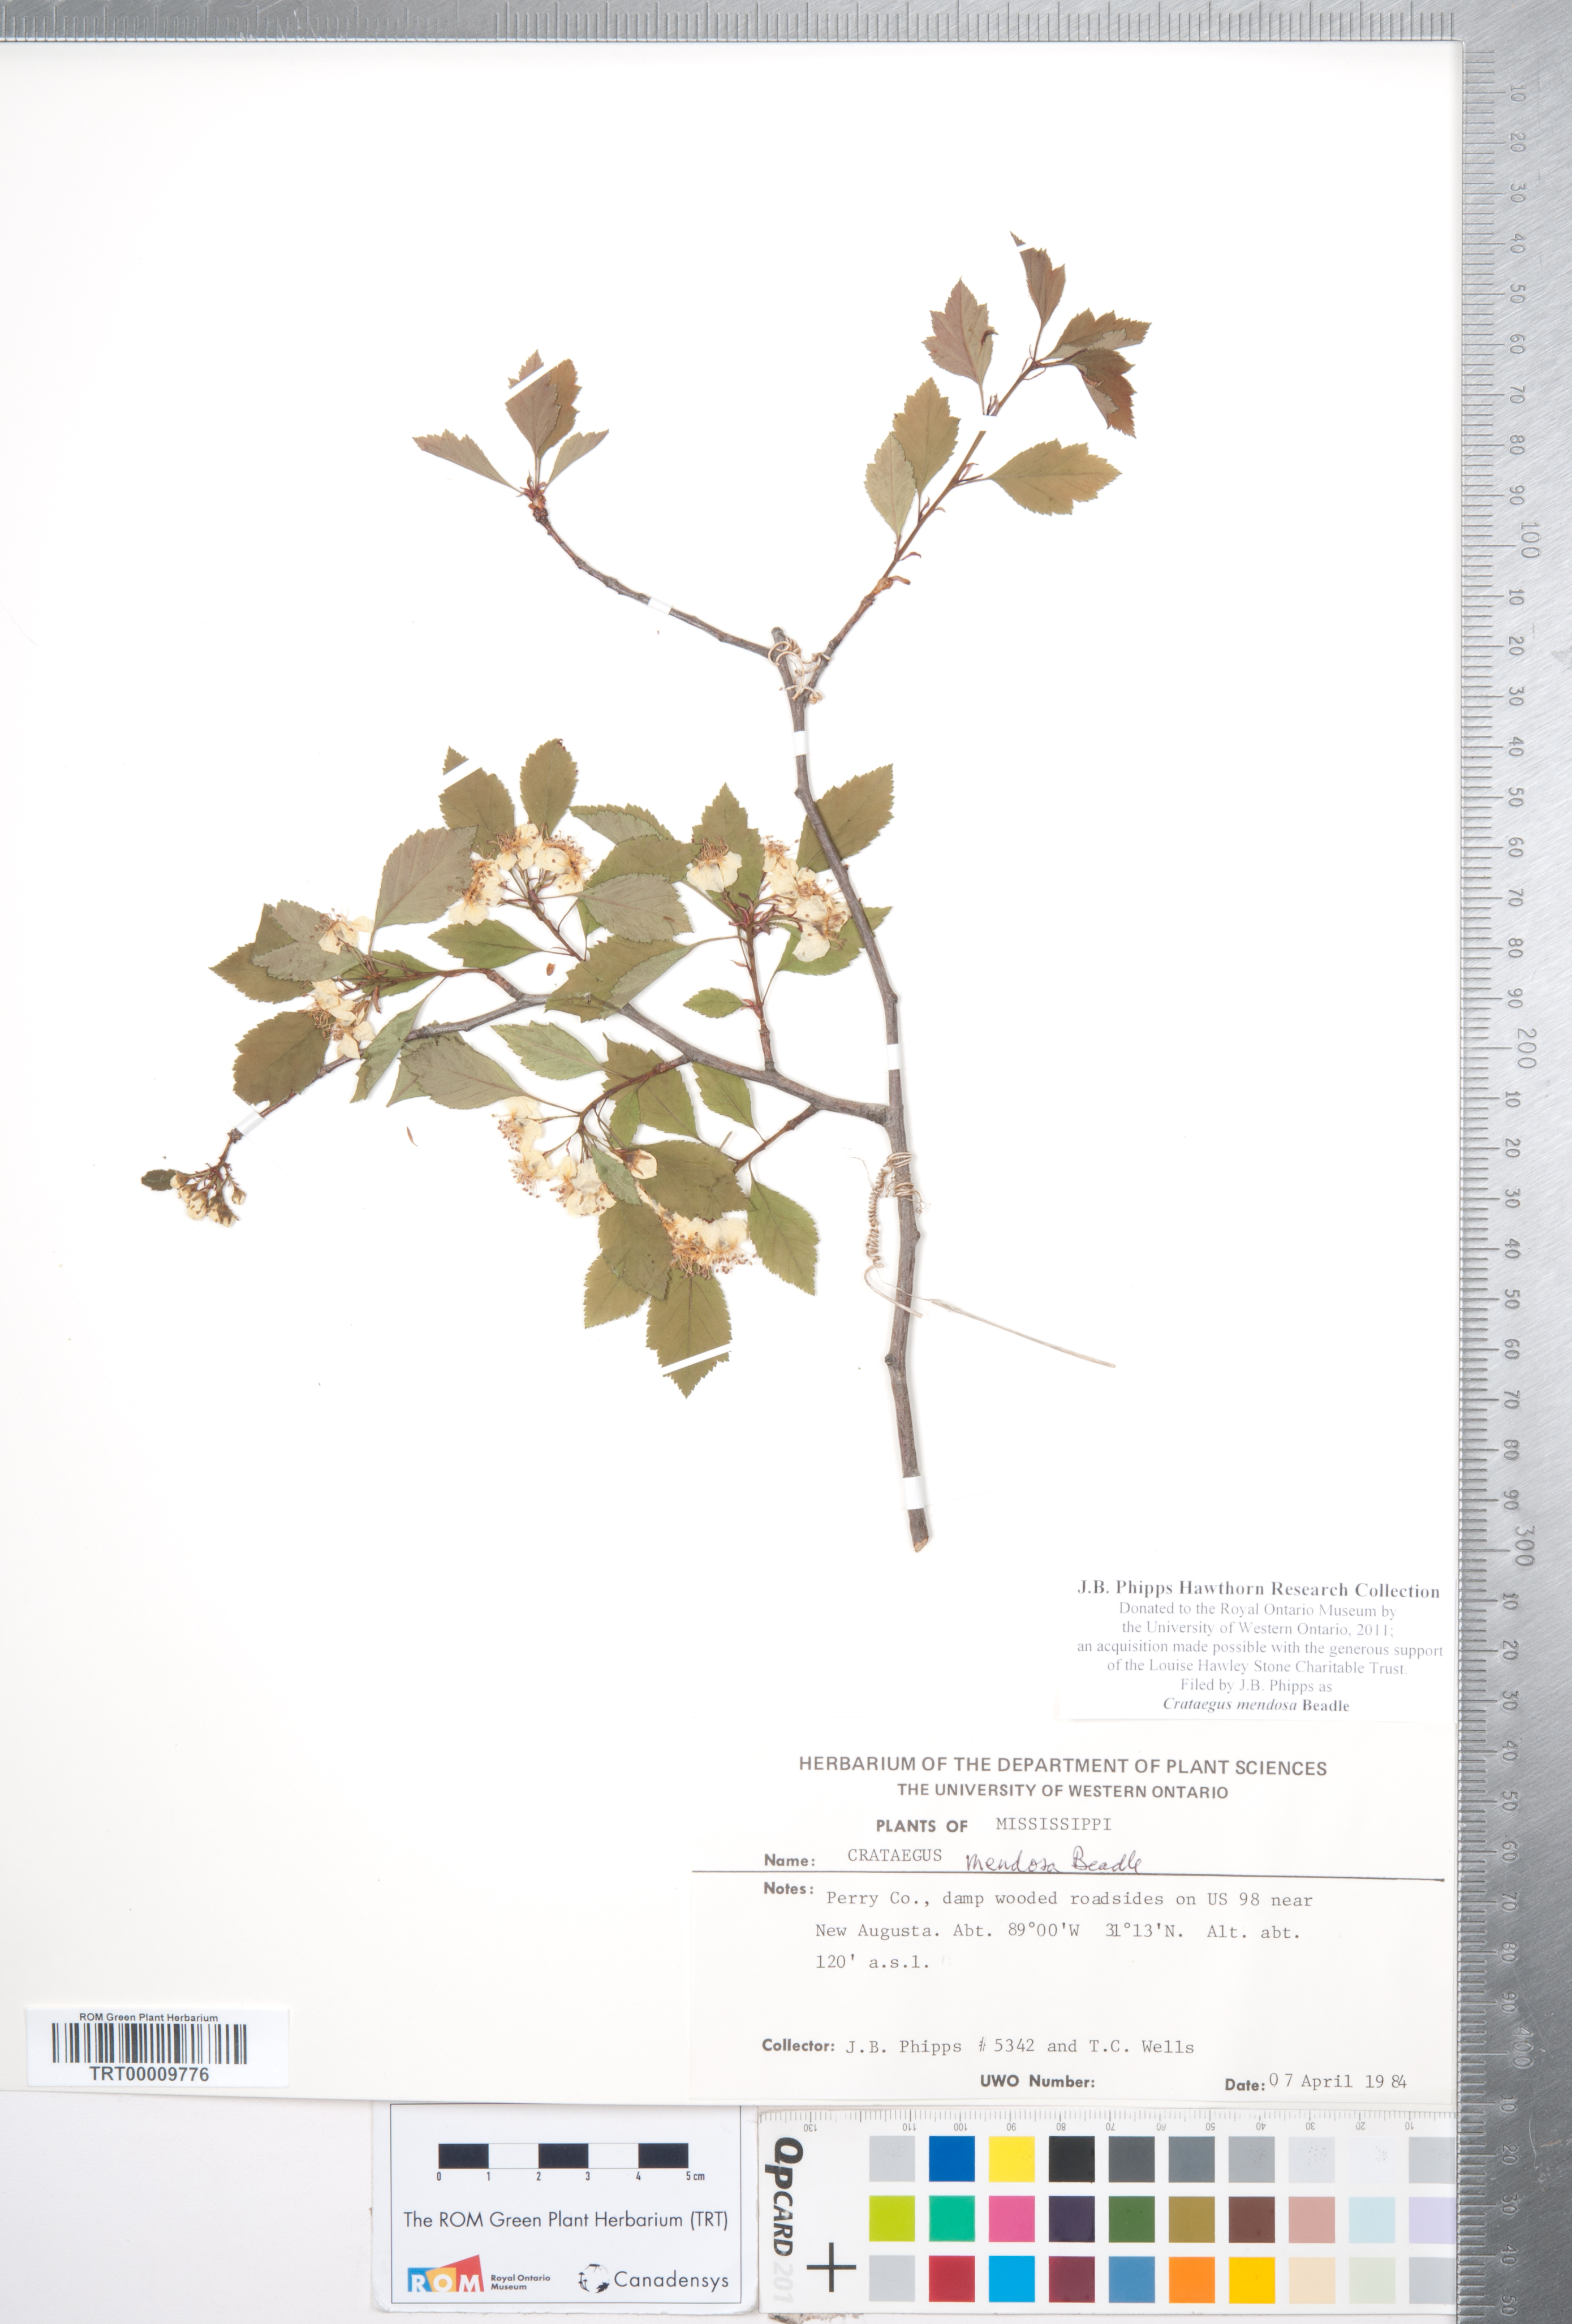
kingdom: Plantae
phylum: Tracheophyta
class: Magnoliopsida
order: Rosales
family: Rosaceae
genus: Crataegus
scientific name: Crataegus pulcherrima
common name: Beautiful hawthorn
